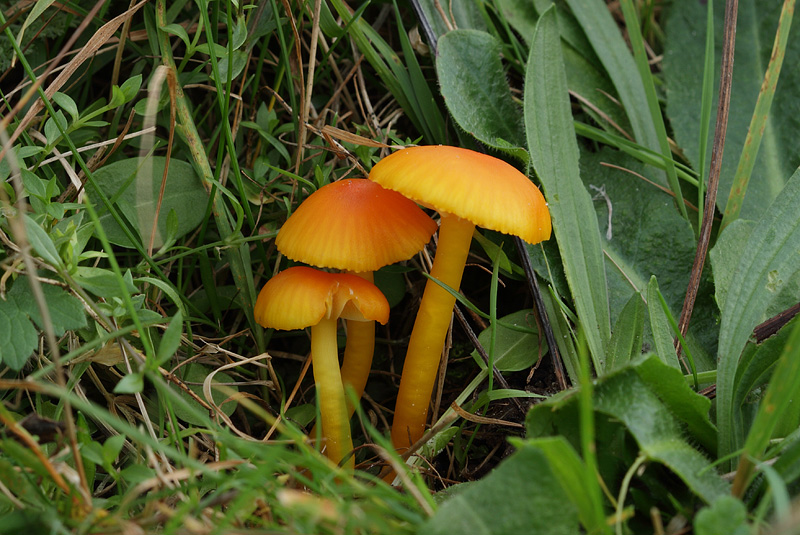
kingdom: Fungi
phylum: Basidiomycota
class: Agaricomycetes
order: Agaricales
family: Hygrophoraceae
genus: Hygrocybe
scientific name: Hygrocybe ceracea
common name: voksgul vokshat
